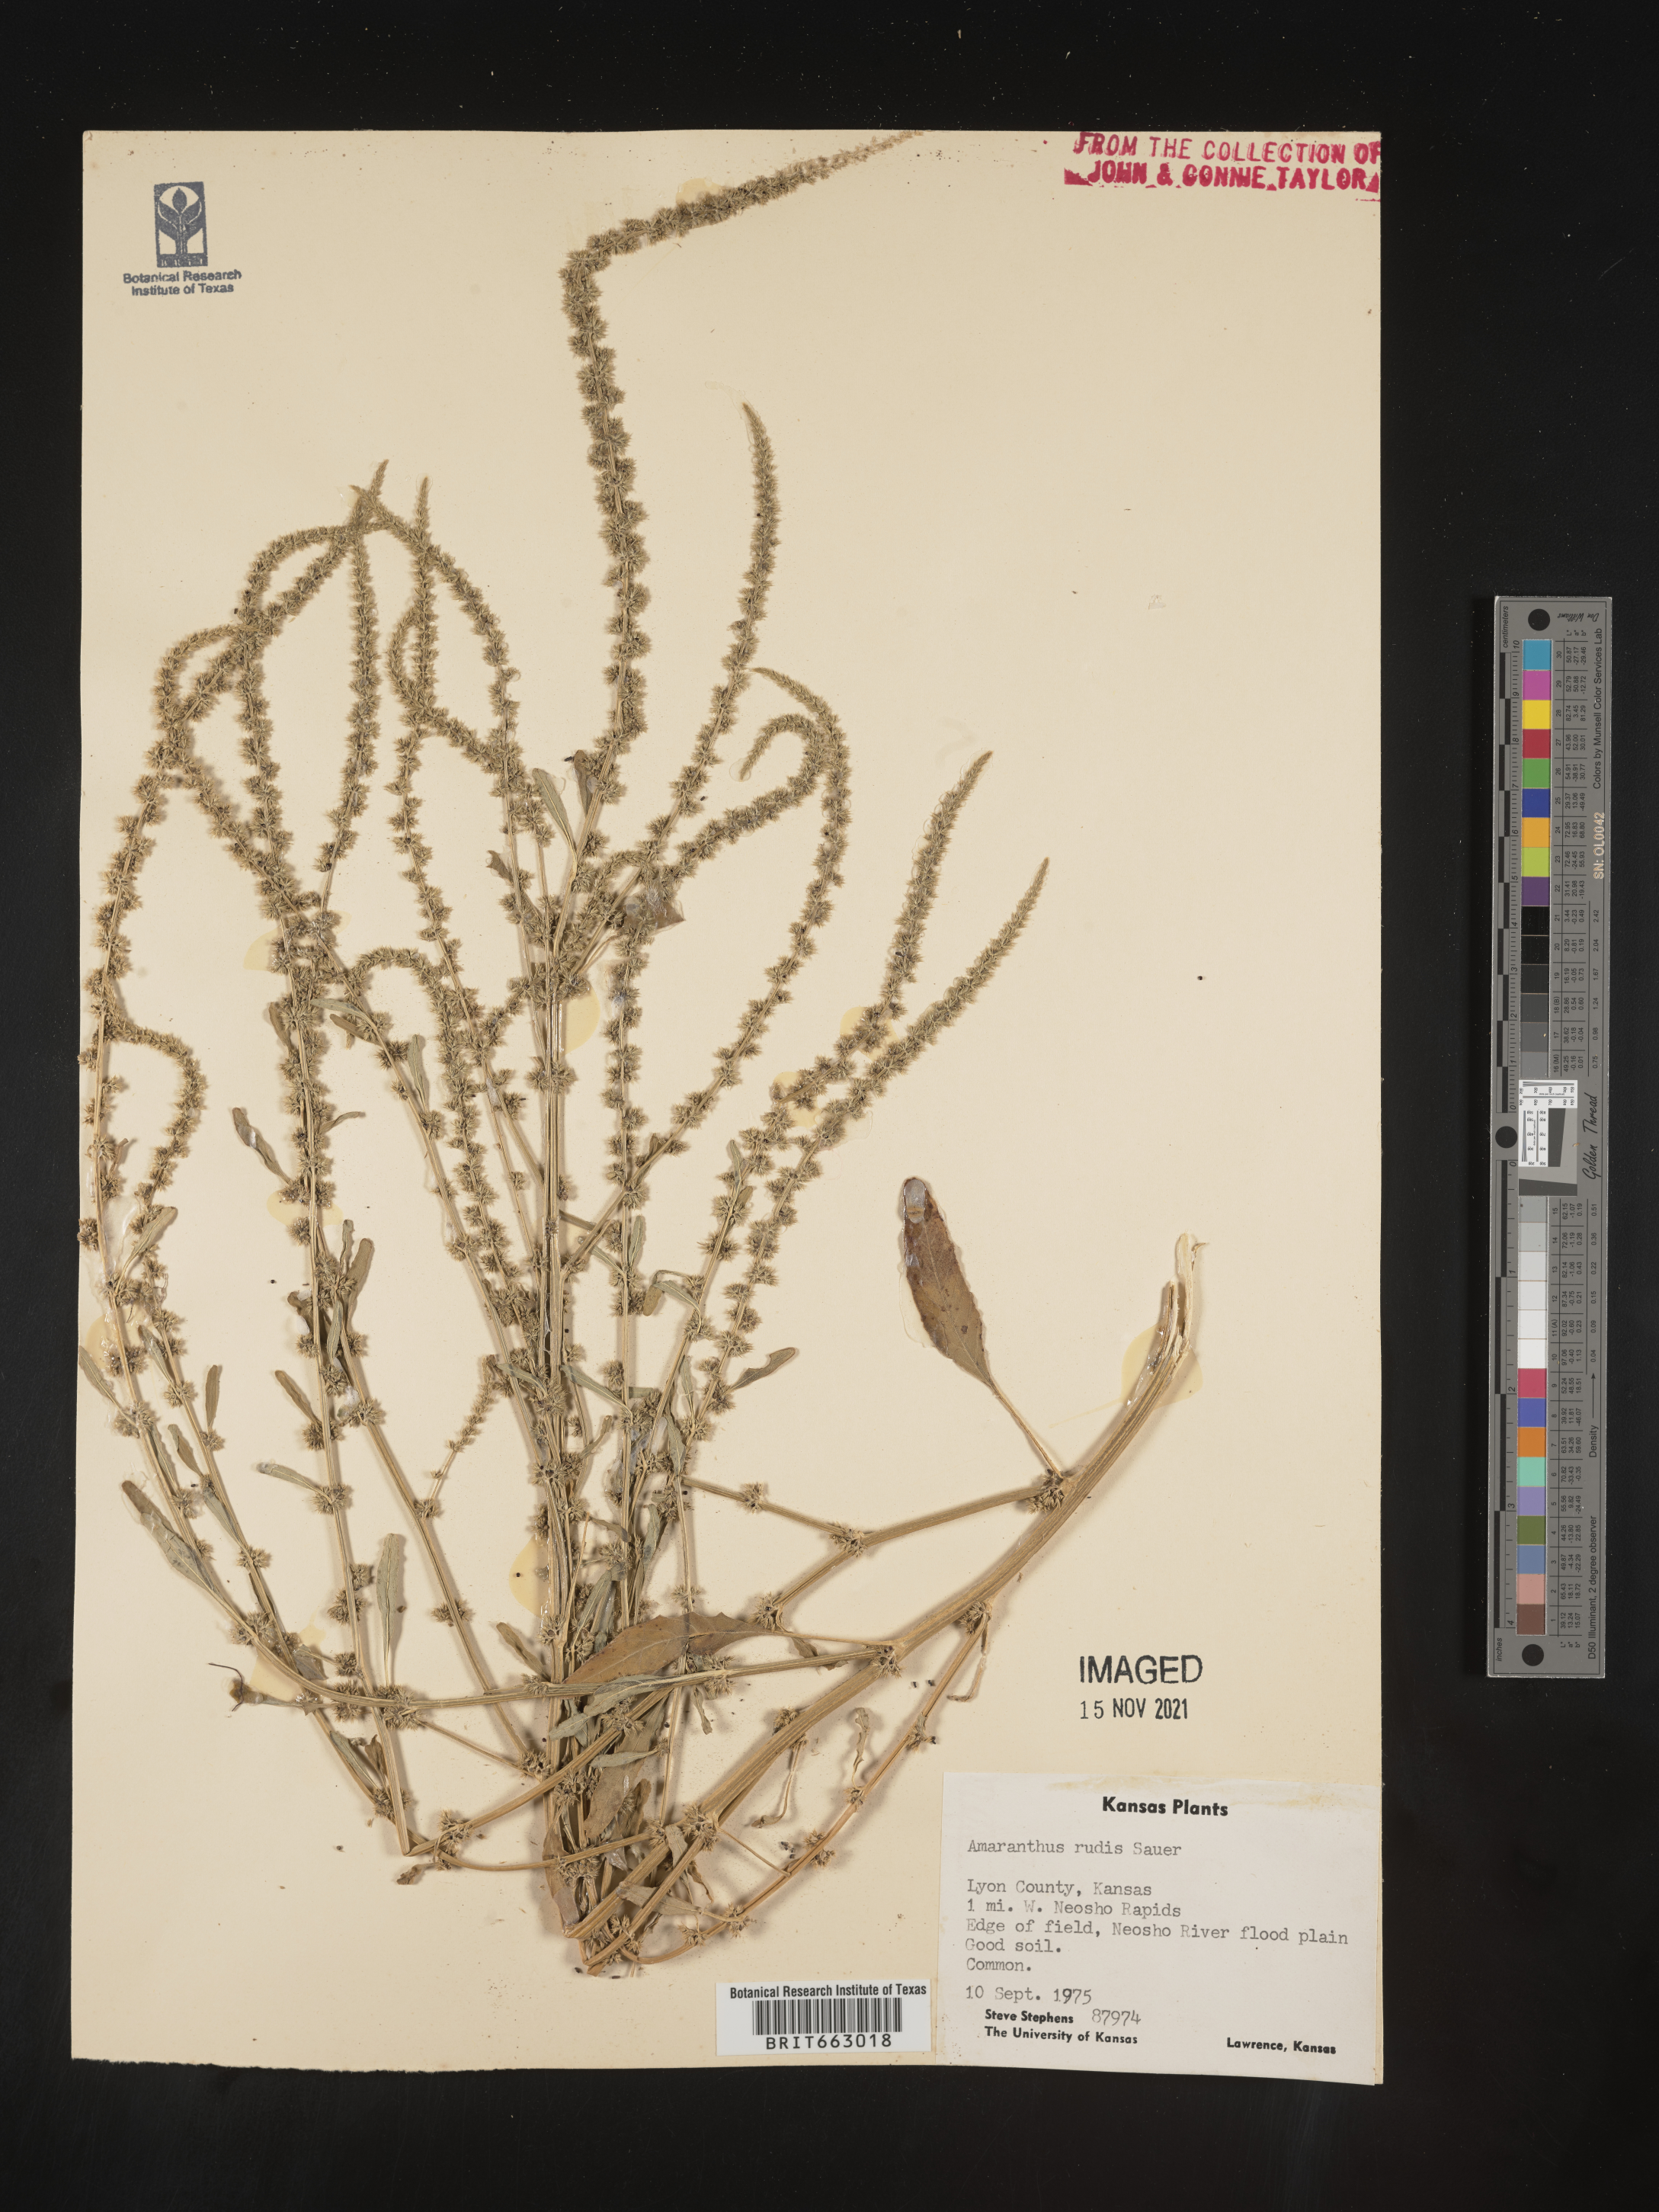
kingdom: Plantae
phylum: Tracheophyta
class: Magnoliopsida
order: Caryophyllales
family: Amaranthaceae
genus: Amaranthus
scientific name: Amaranthus tuberculatus
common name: Rough-fruit amaranth
